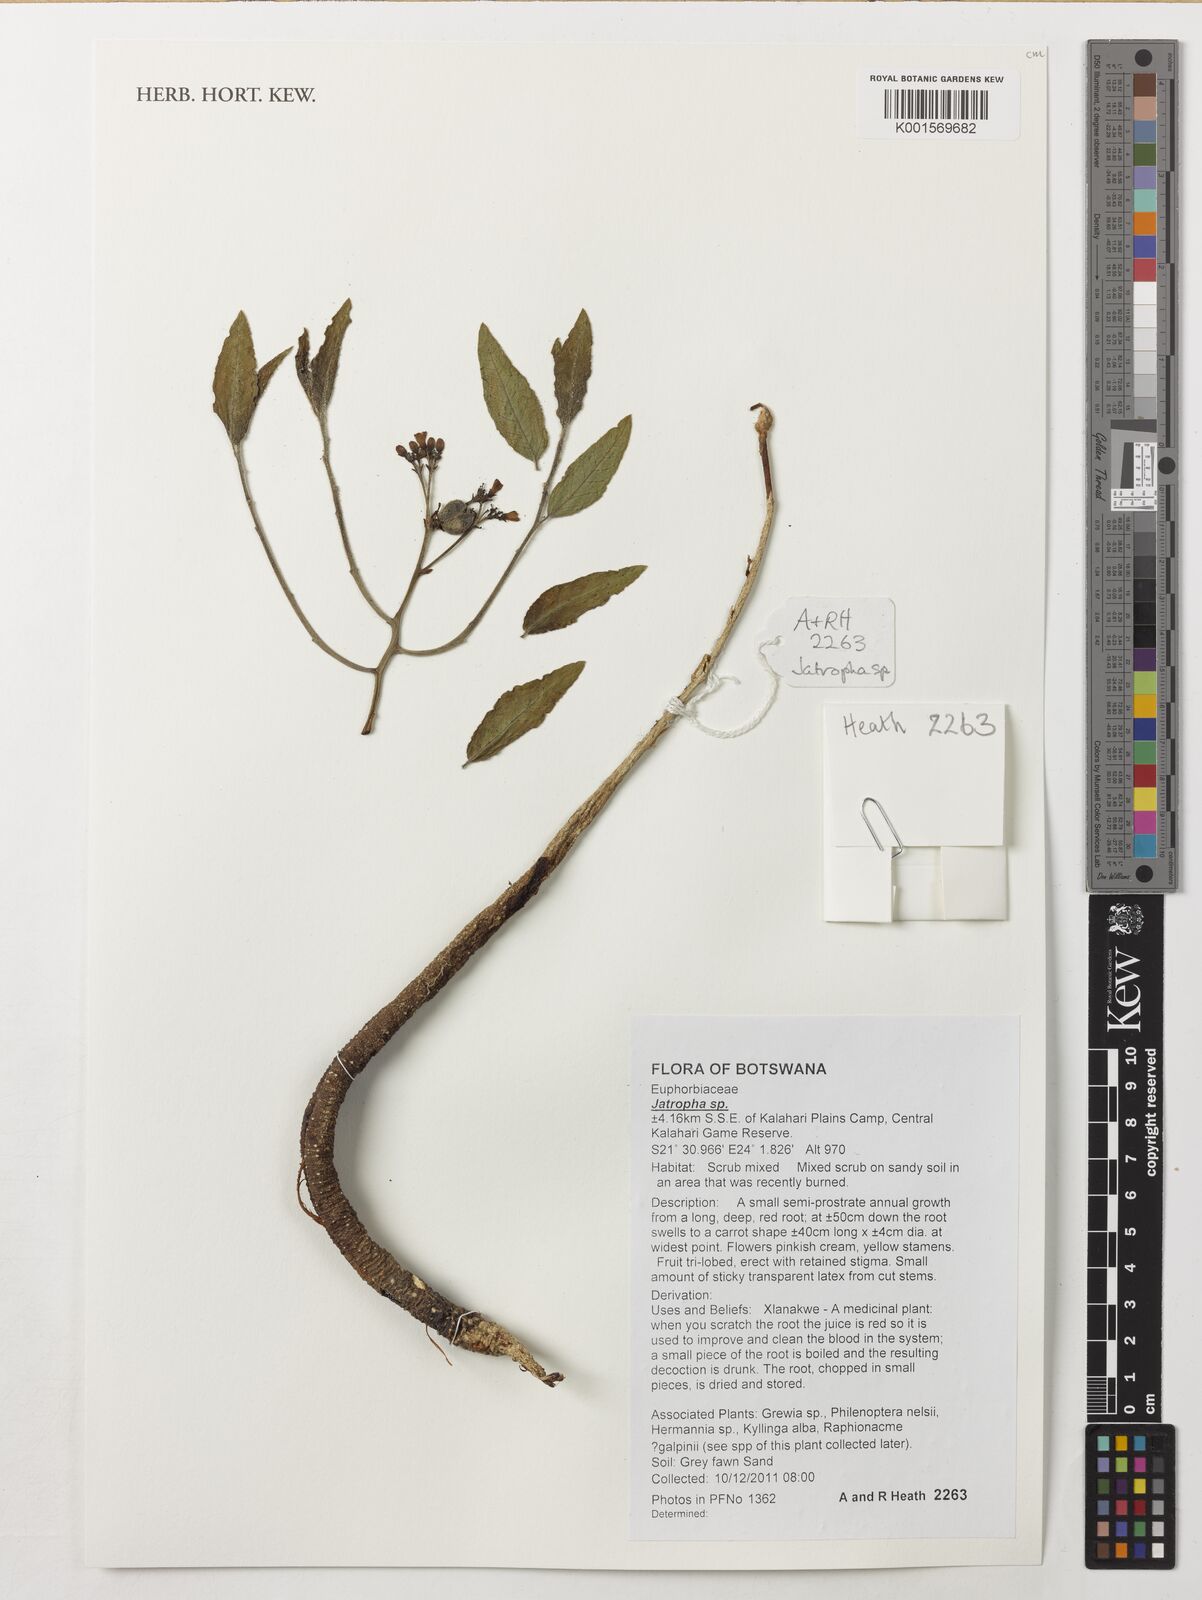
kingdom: Plantae
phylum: Tracheophyta
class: Magnoliopsida
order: Malpighiales
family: Euphorbiaceae
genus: Jatropha
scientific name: Jatropha
